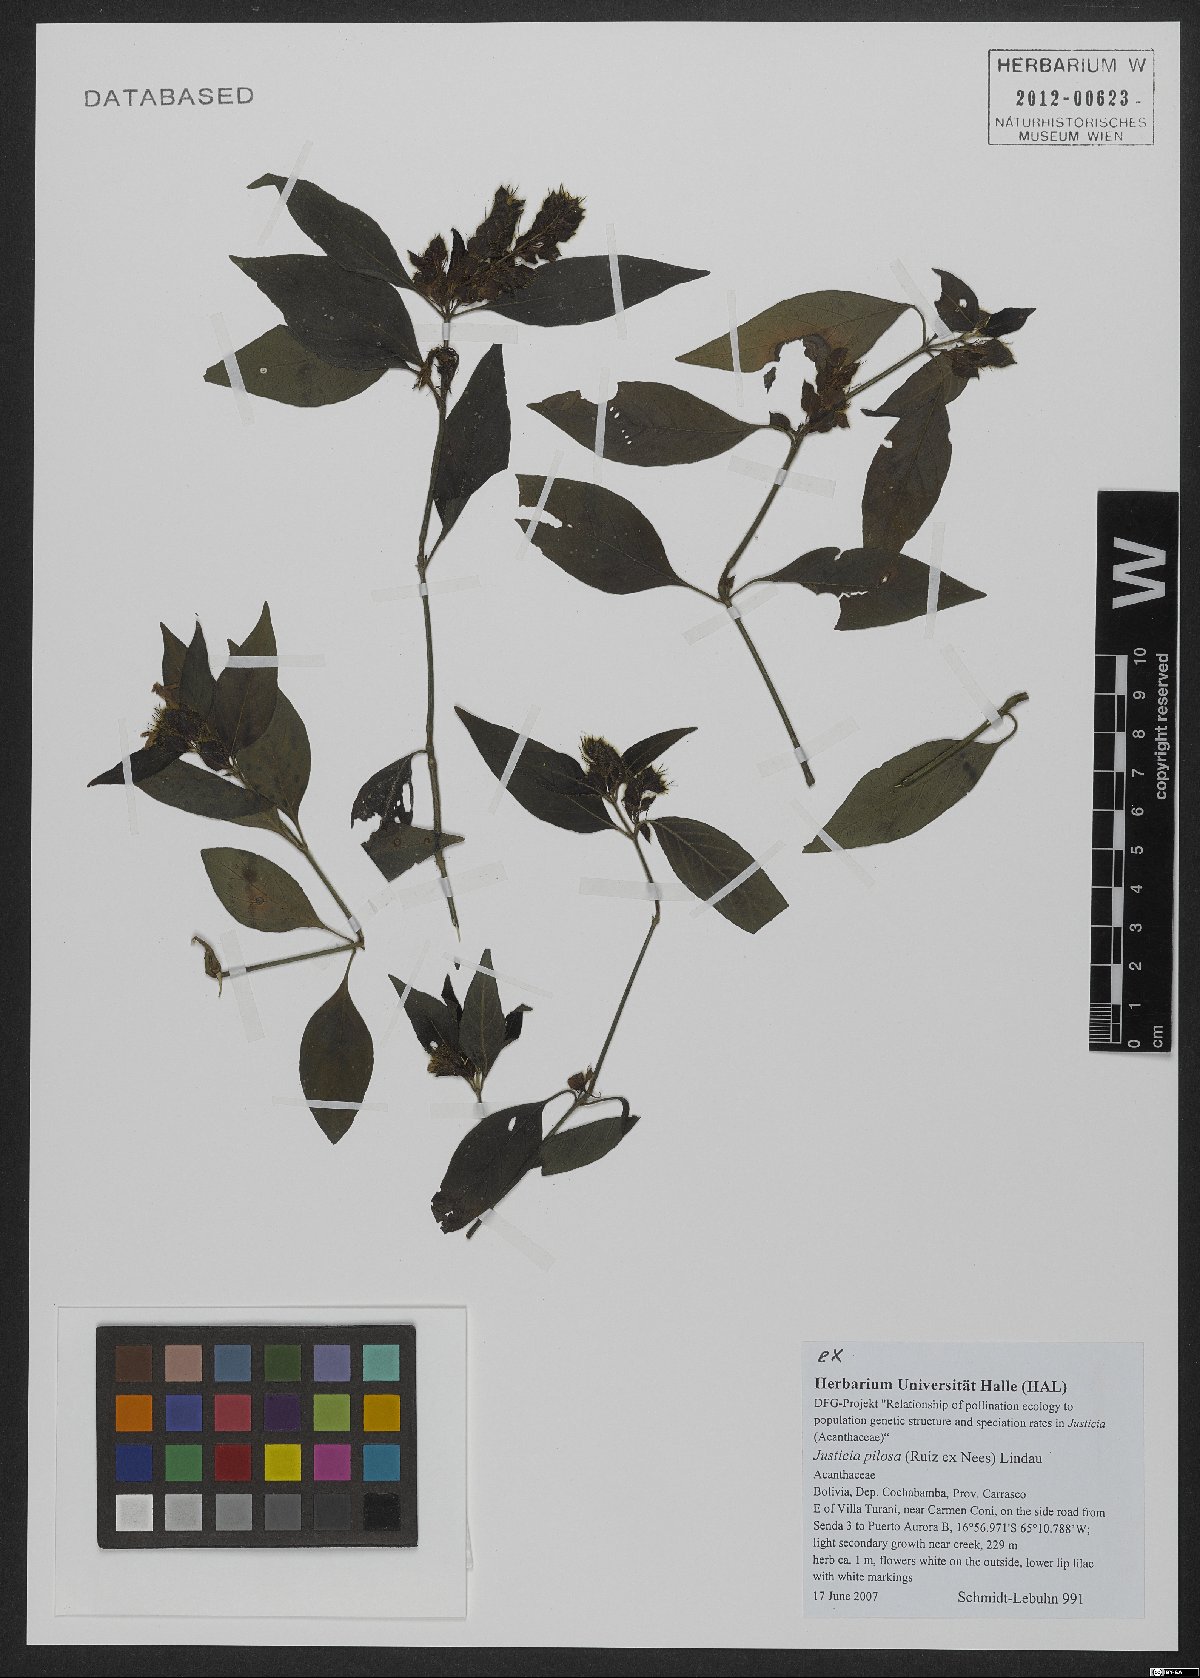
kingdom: Plantae
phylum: Tracheophyta
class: Magnoliopsida
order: Lamiales
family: Acanthaceae
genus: Justicia
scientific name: Justicia pilosa
